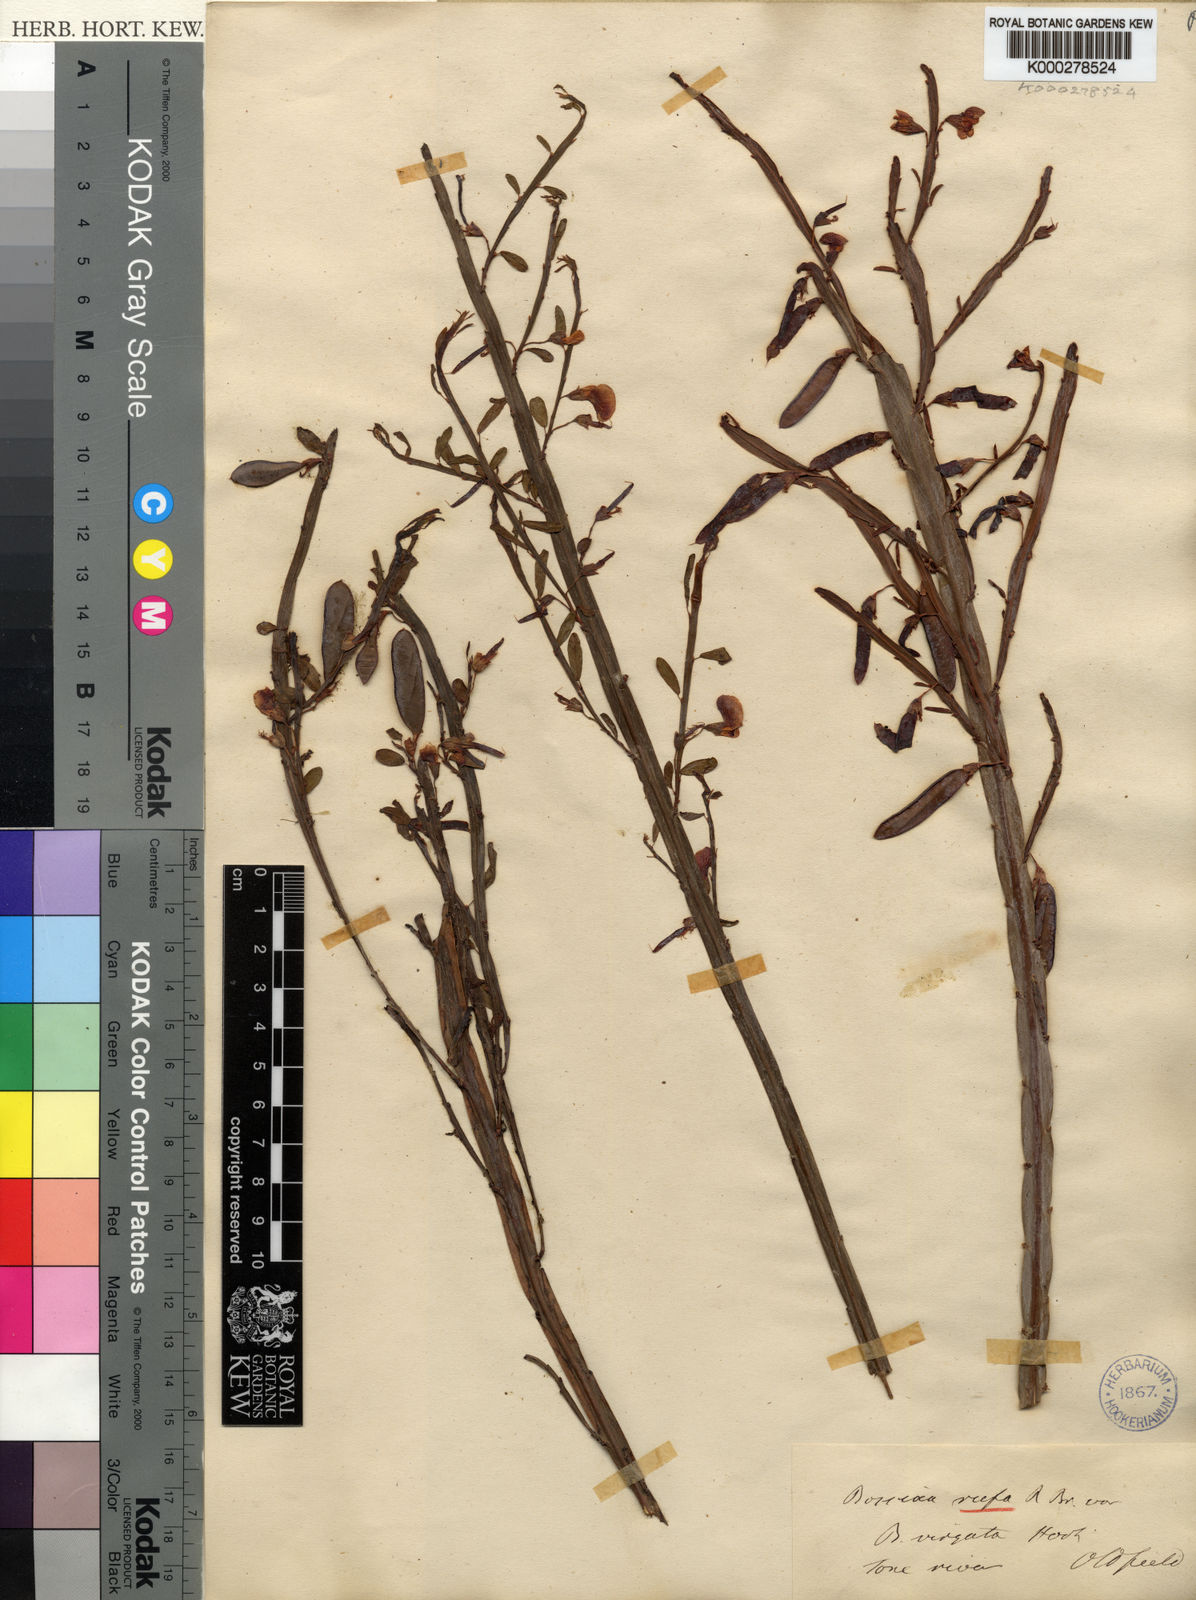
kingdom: Plantae
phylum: Tracheophyta
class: Magnoliopsida
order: Fabales
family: Fabaceae
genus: Bossiaea
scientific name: Bossiaea rufa
